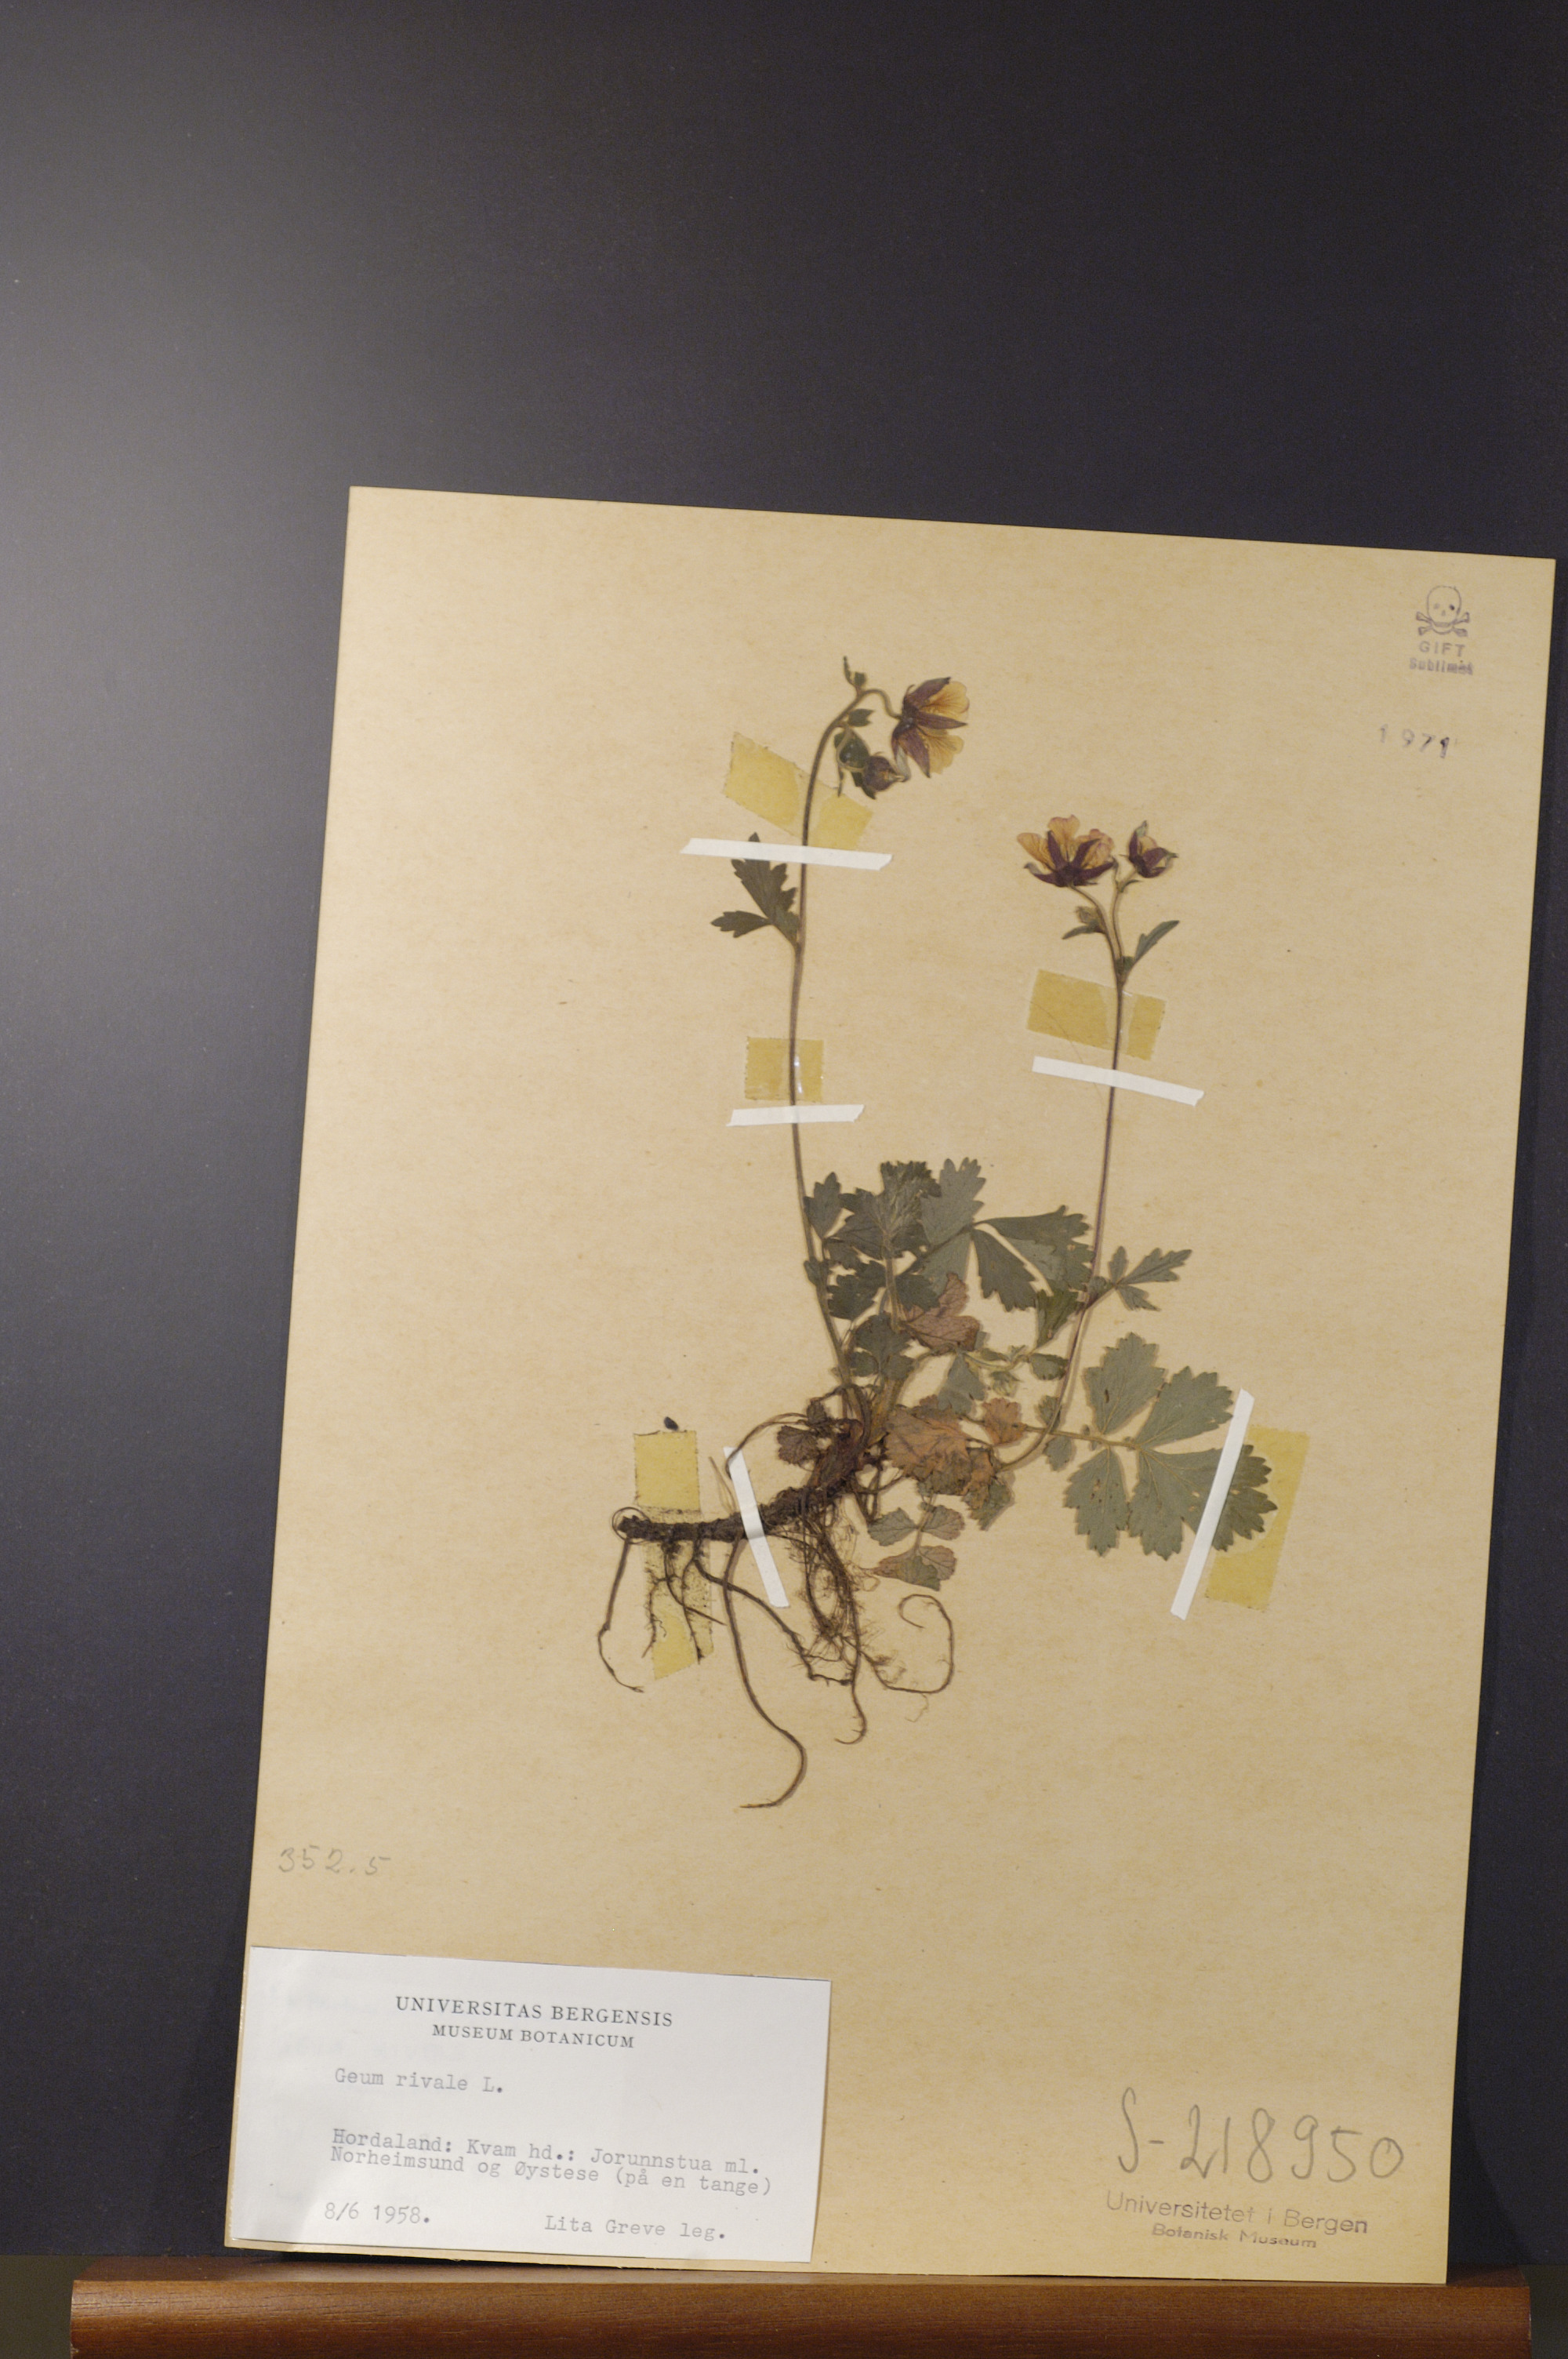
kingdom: Plantae
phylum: Tracheophyta
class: Magnoliopsida
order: Rosales
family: Rosaceae
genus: Geum
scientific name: Geum rivale
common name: Water avens
